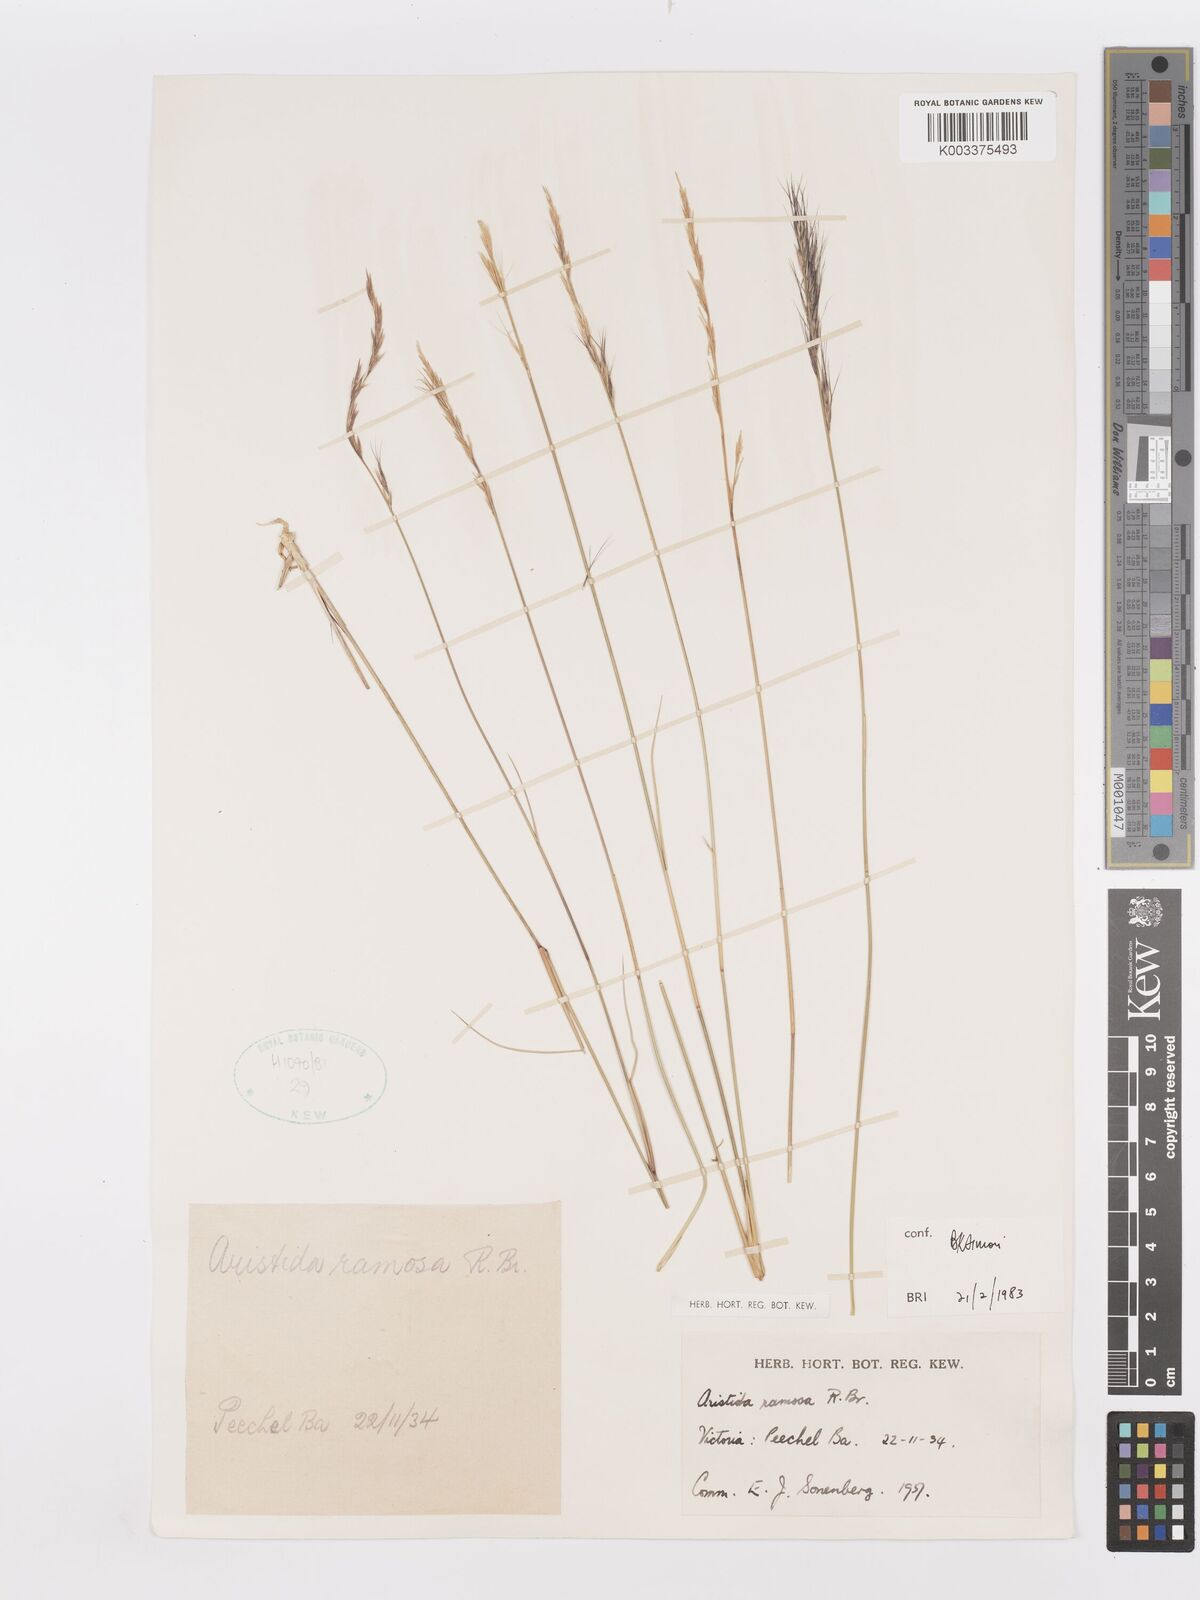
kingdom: Plantae
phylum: Tracheophyta
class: Liliopsida
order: Poales
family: Poaceae
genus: Aristida
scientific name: Aristida ramosa
